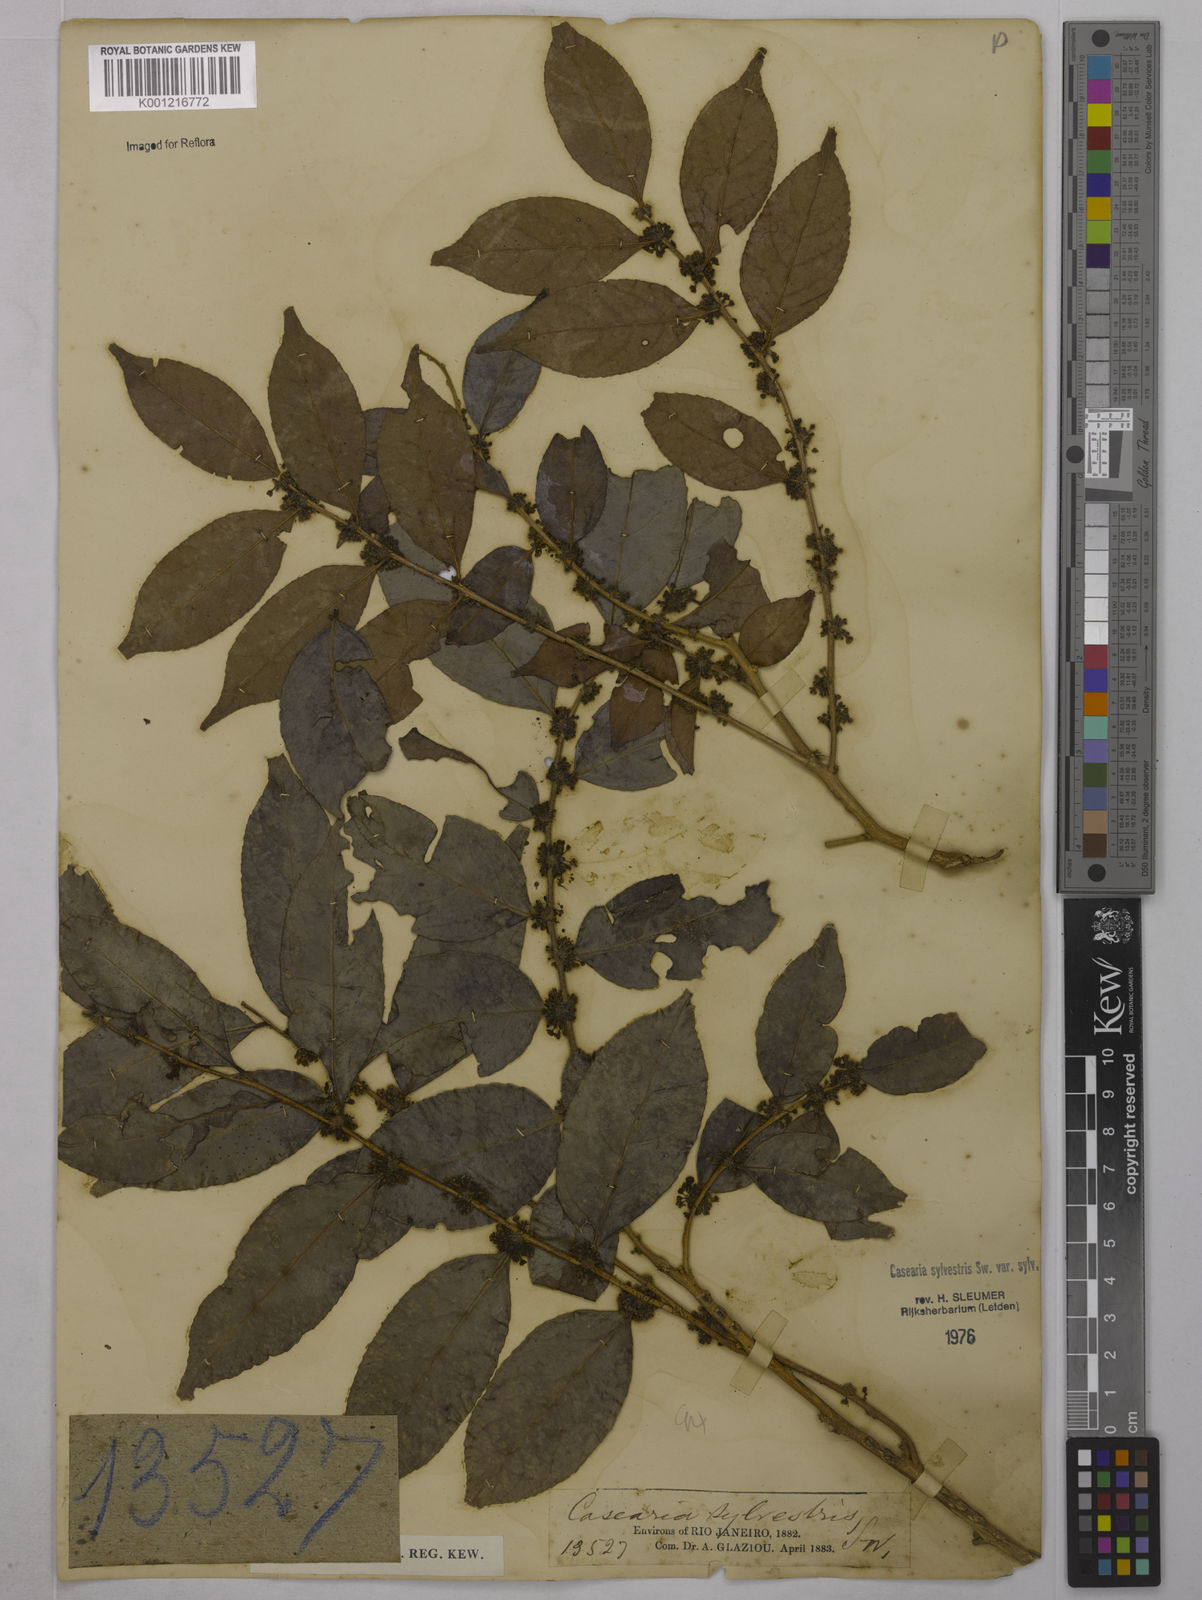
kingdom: Plantae
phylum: Tracheophyta
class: Magnoliopsida
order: Malpighiales
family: Salicaceae
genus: Casearia
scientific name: Casearia sylvestris
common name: Wild sage
